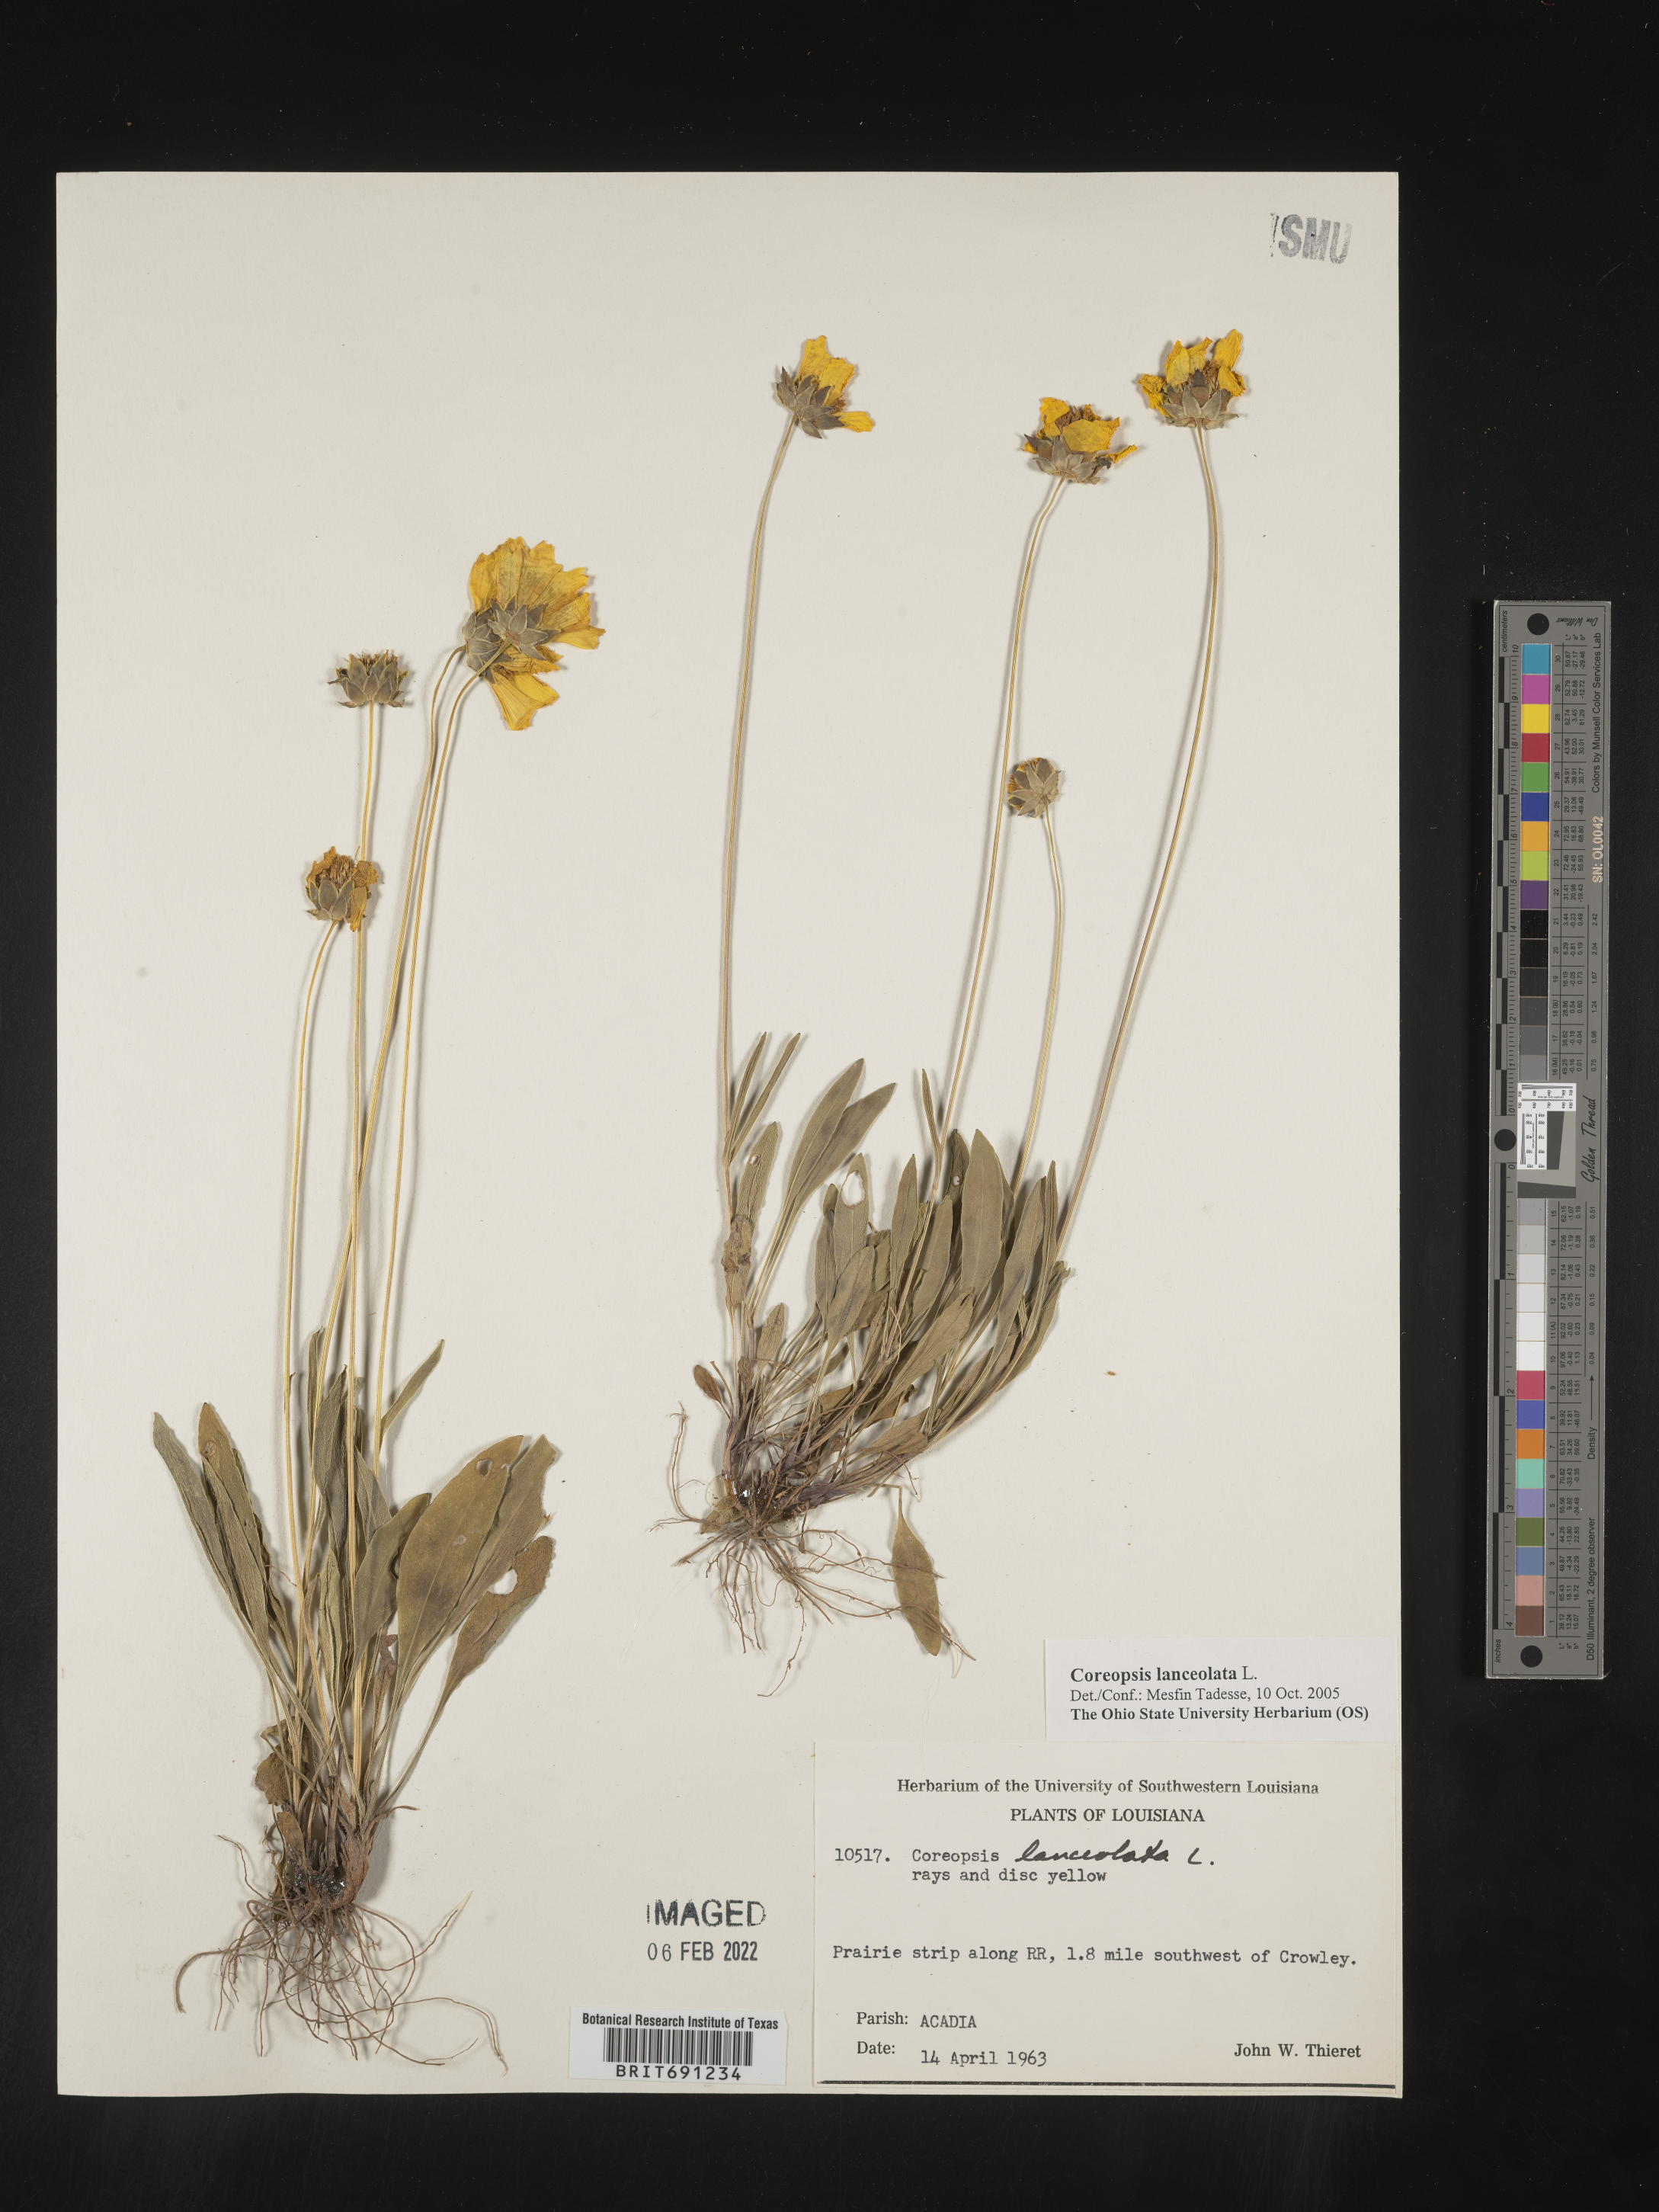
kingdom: Plantae
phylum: Tracheophyta
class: Magnoliopsida
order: Asterales
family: Asteraceae
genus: Coreopsis
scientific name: Coreopsis lanceolata
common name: Garden coreopsis
